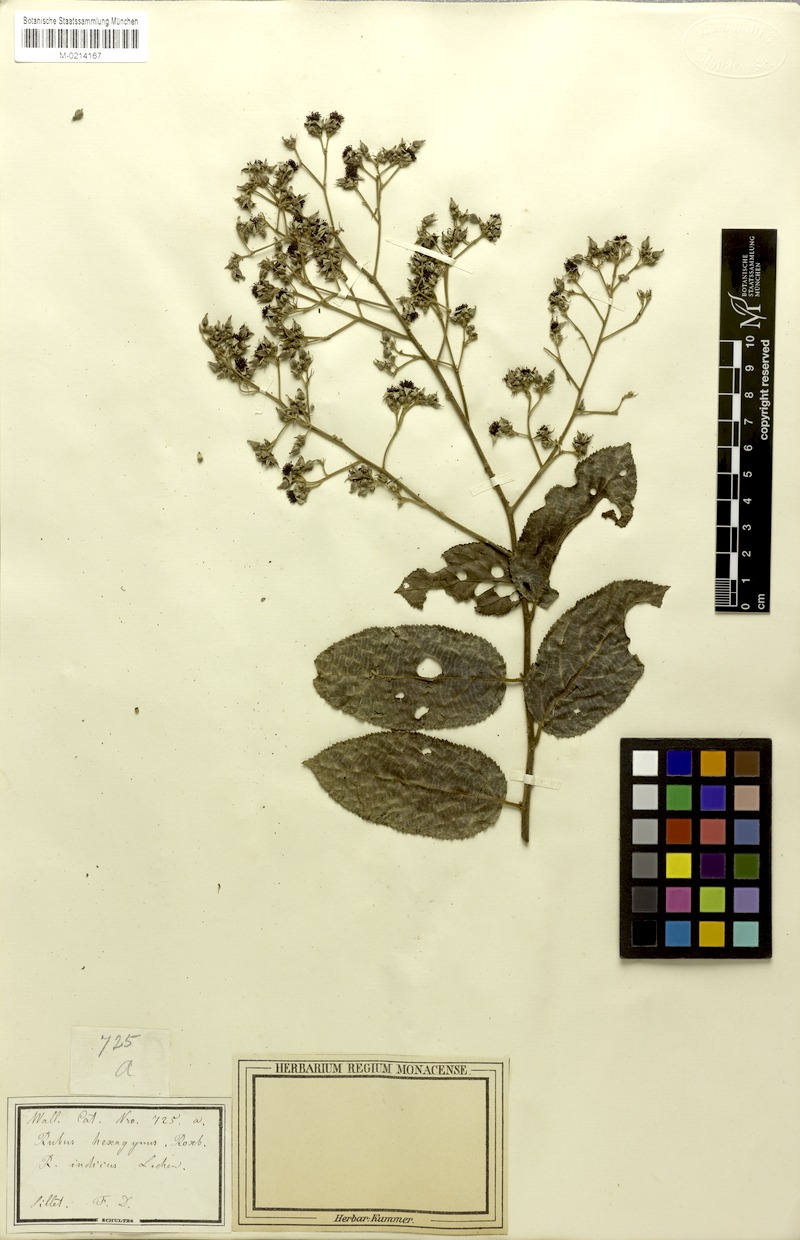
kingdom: Plantae
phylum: Tracheophyta
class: Magnoliopsida
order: Rosales
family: Rosaceae
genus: Rubus
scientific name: Rubus hexagynus
